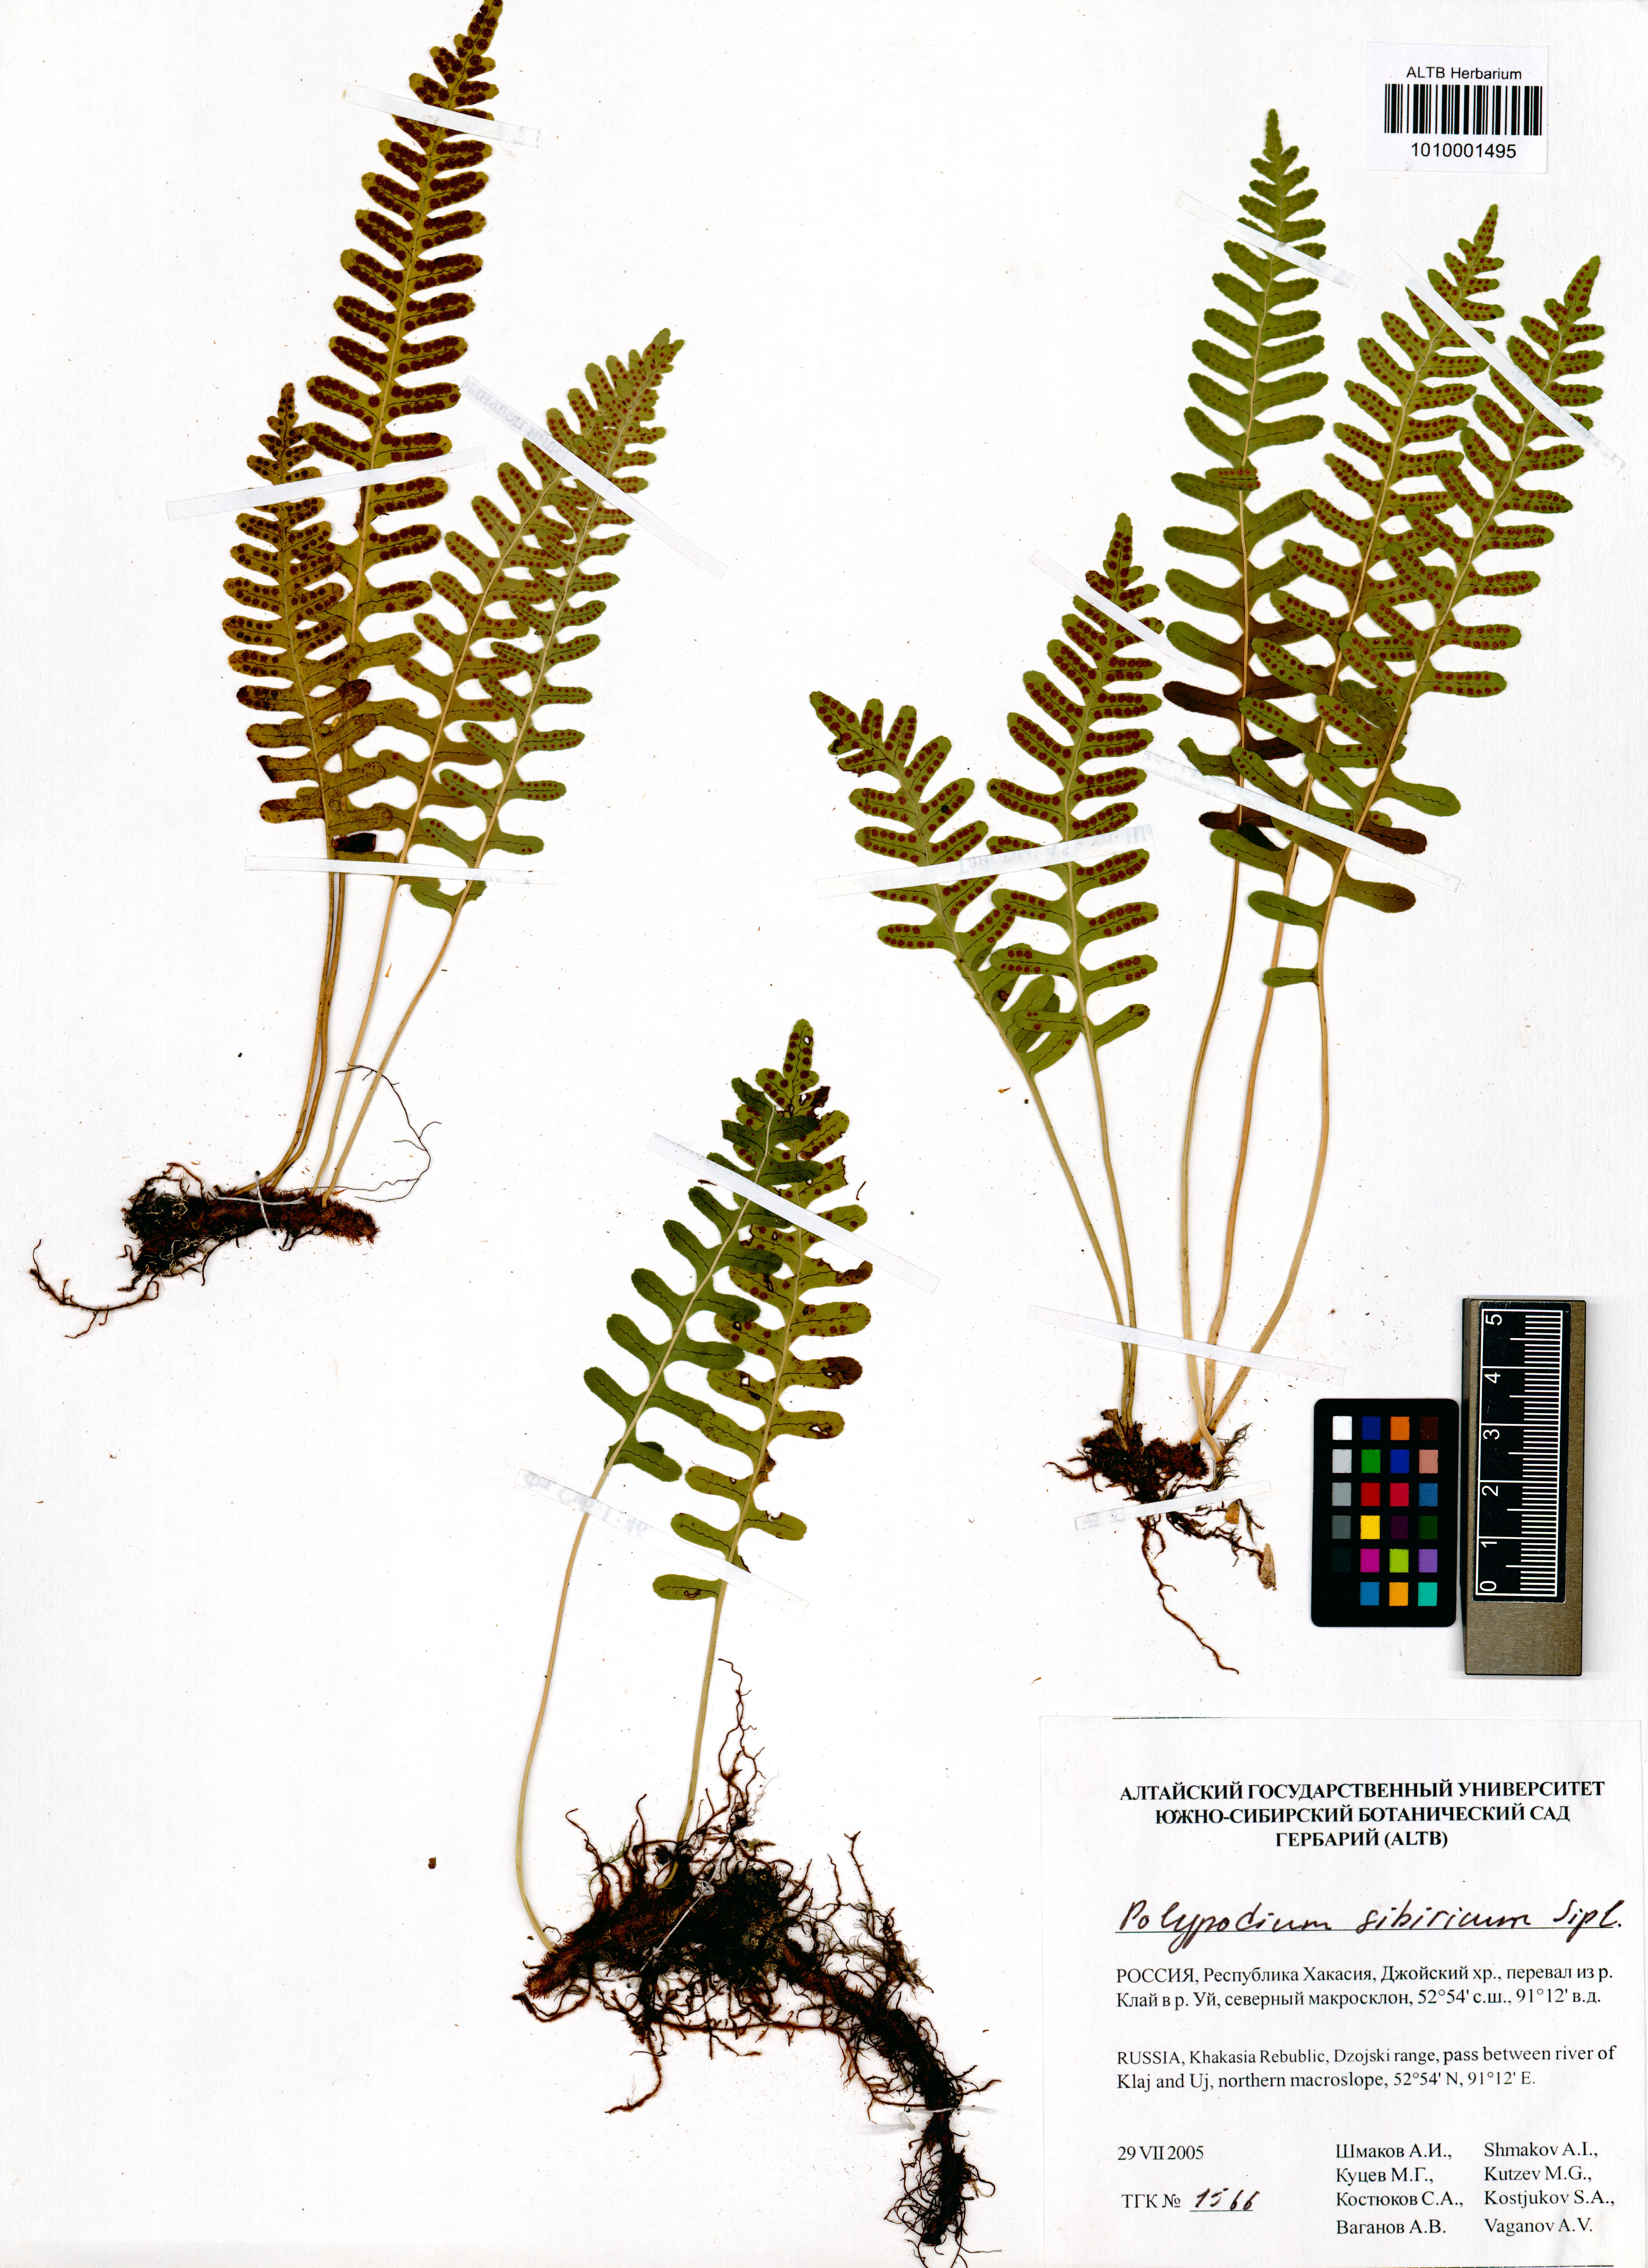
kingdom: Plantae
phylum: Tracheophyta
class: Polypodiopsida
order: Polypodiales
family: Polypodiaceae
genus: Polypodium
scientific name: Polypodium sibiricum
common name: Siberian polypody
